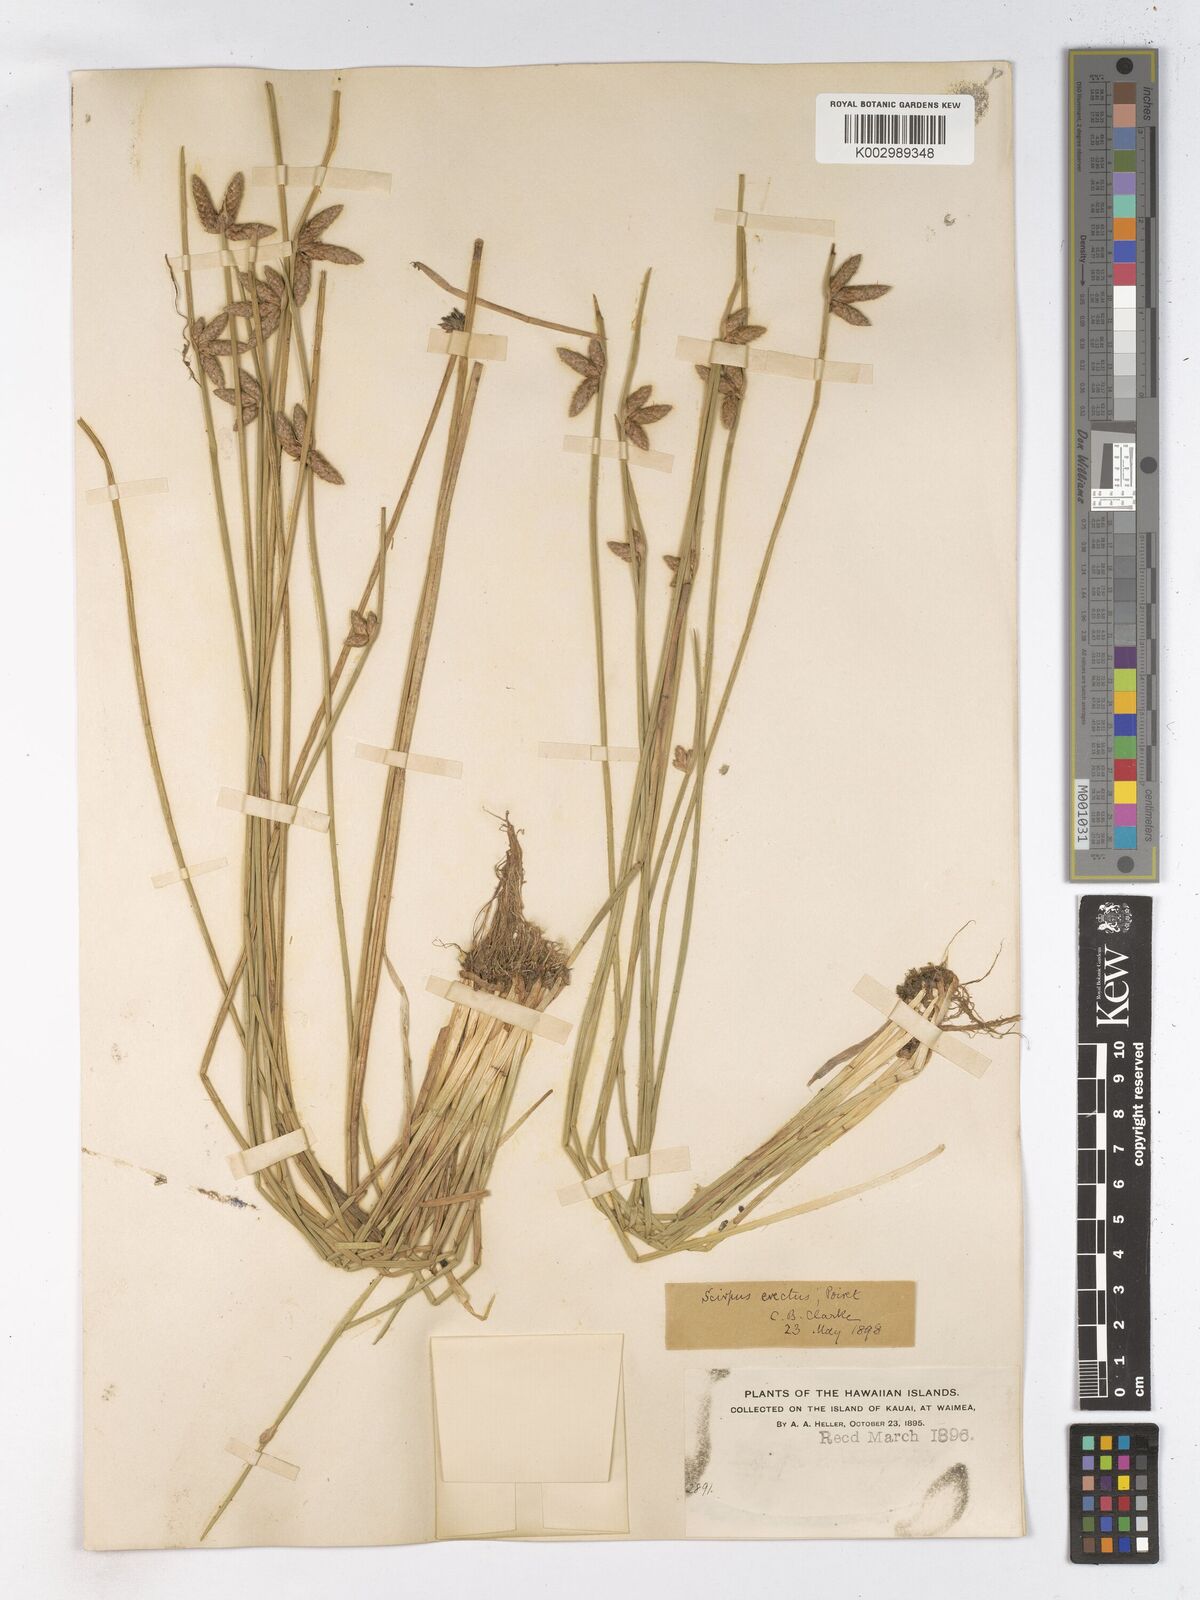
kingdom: Plantae
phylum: Tracheophyta
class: Liliopsida
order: Poales
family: Cyperaceae
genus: Schoenoplectiella
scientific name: Schoenoplectiella juncoides
